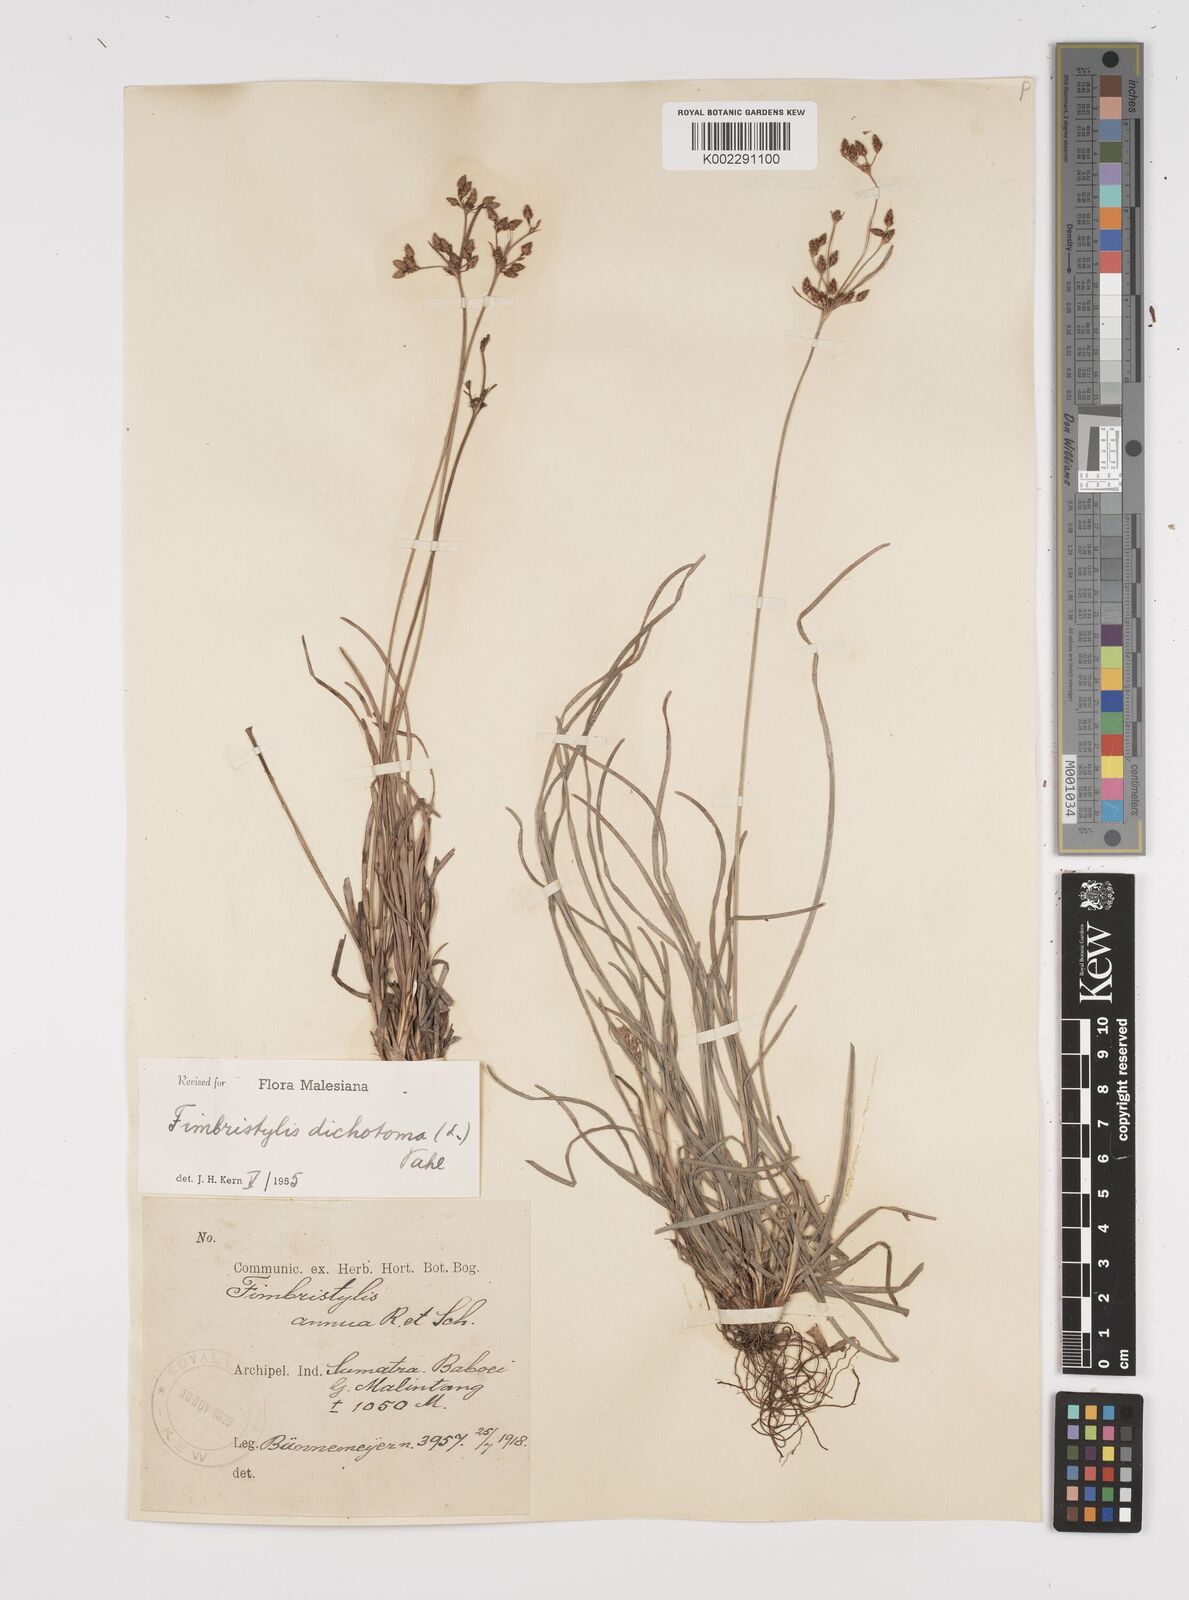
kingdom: Plantae
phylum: Tracheophyta
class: Liliopsida
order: Poales
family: Cyperaceae
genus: Fimbristylis
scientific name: Fimbristylis dichotoma
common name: Forked fimbry
